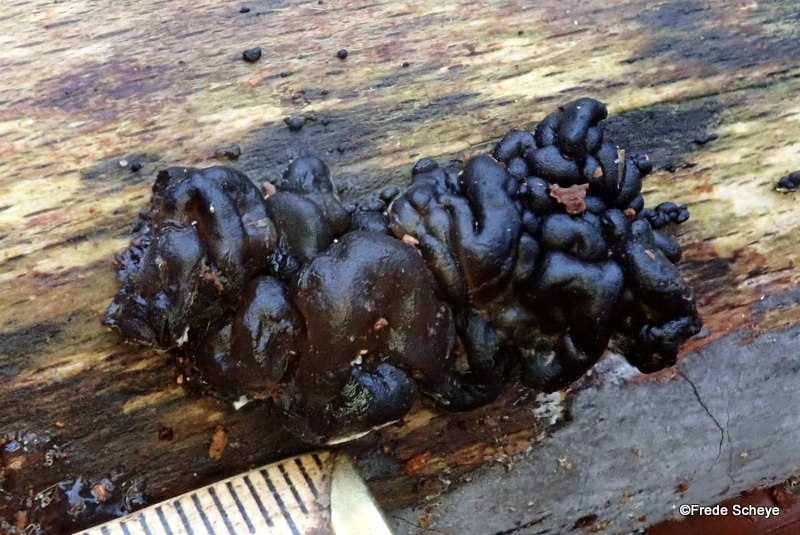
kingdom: Fungi
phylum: Basidiomycota
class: Agaricomycetes
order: Auriculariales
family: Auriculariaceae
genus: Exidia
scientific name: Exidia nigricans
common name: almindelig bævretop
